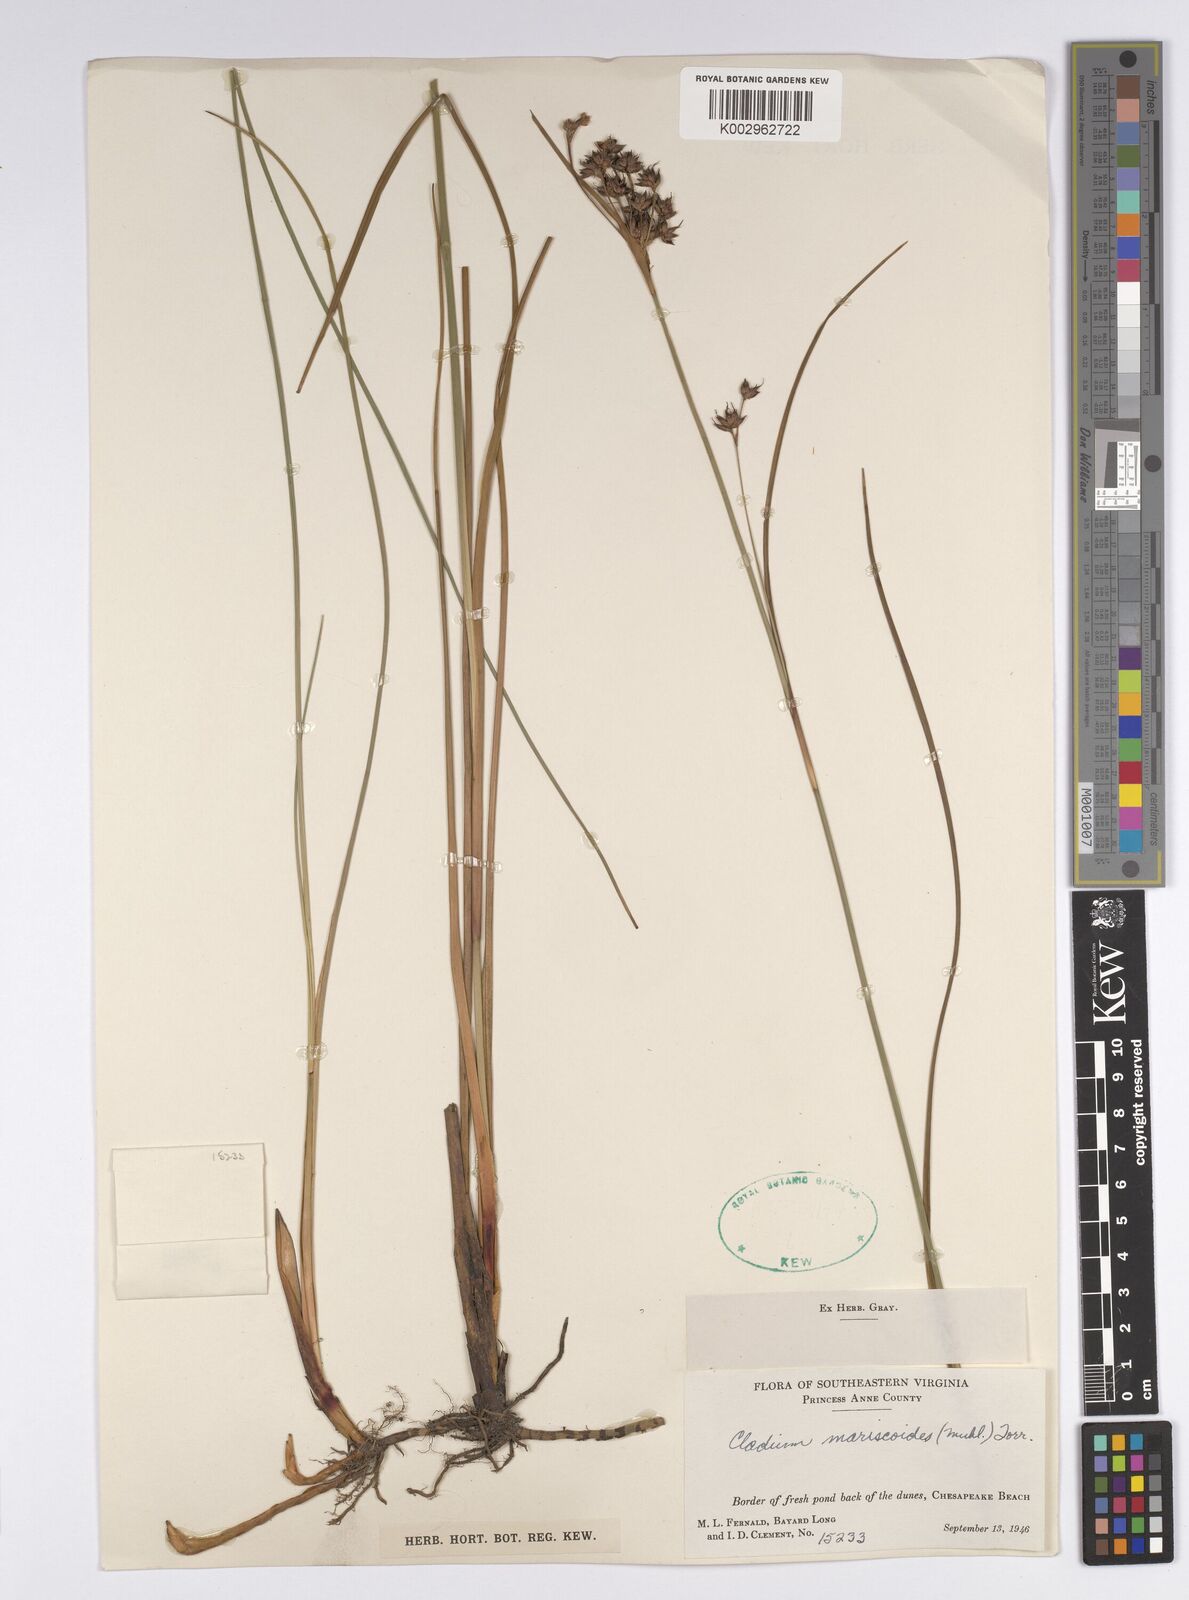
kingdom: Plantae
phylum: Tracheophyta
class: Liliopsida
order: Poales
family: Cyperaceae
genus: Cladium
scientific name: Cladium mariscoides
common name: Smooth sawgrass
